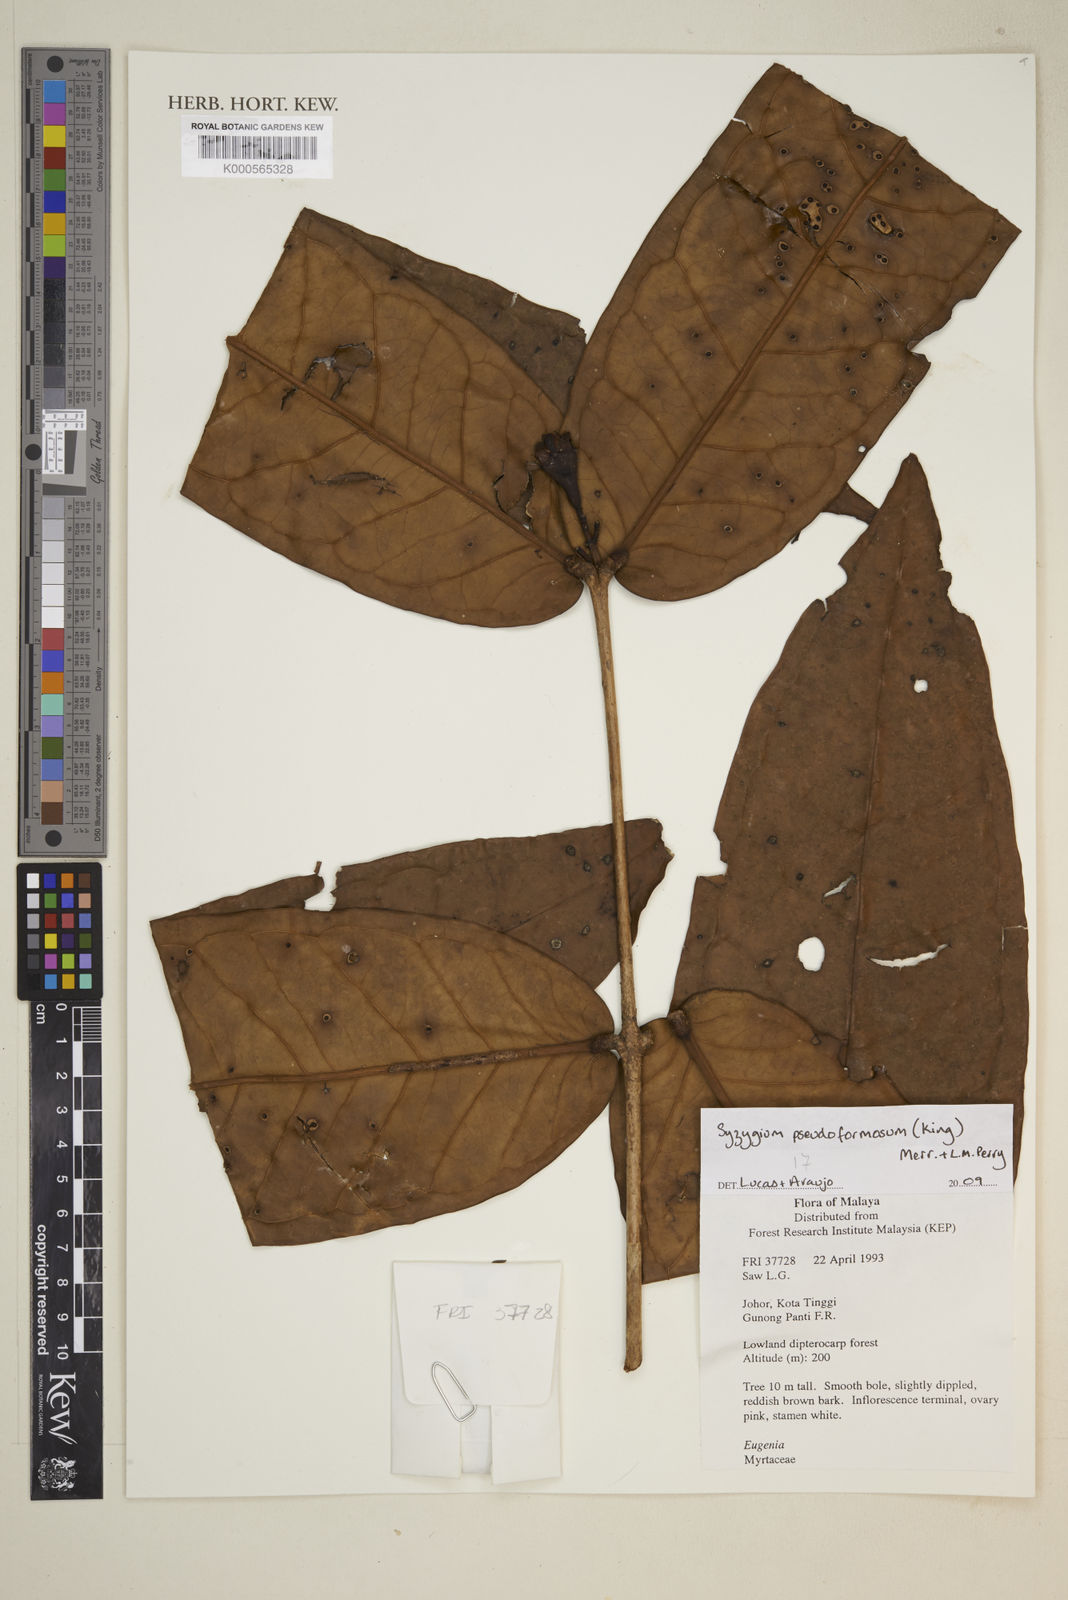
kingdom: Plantae
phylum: Tracheophyta
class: Magnoliopsida
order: Myrtales
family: Myrtaceae
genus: Syzygium
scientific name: Syzygium formosum
